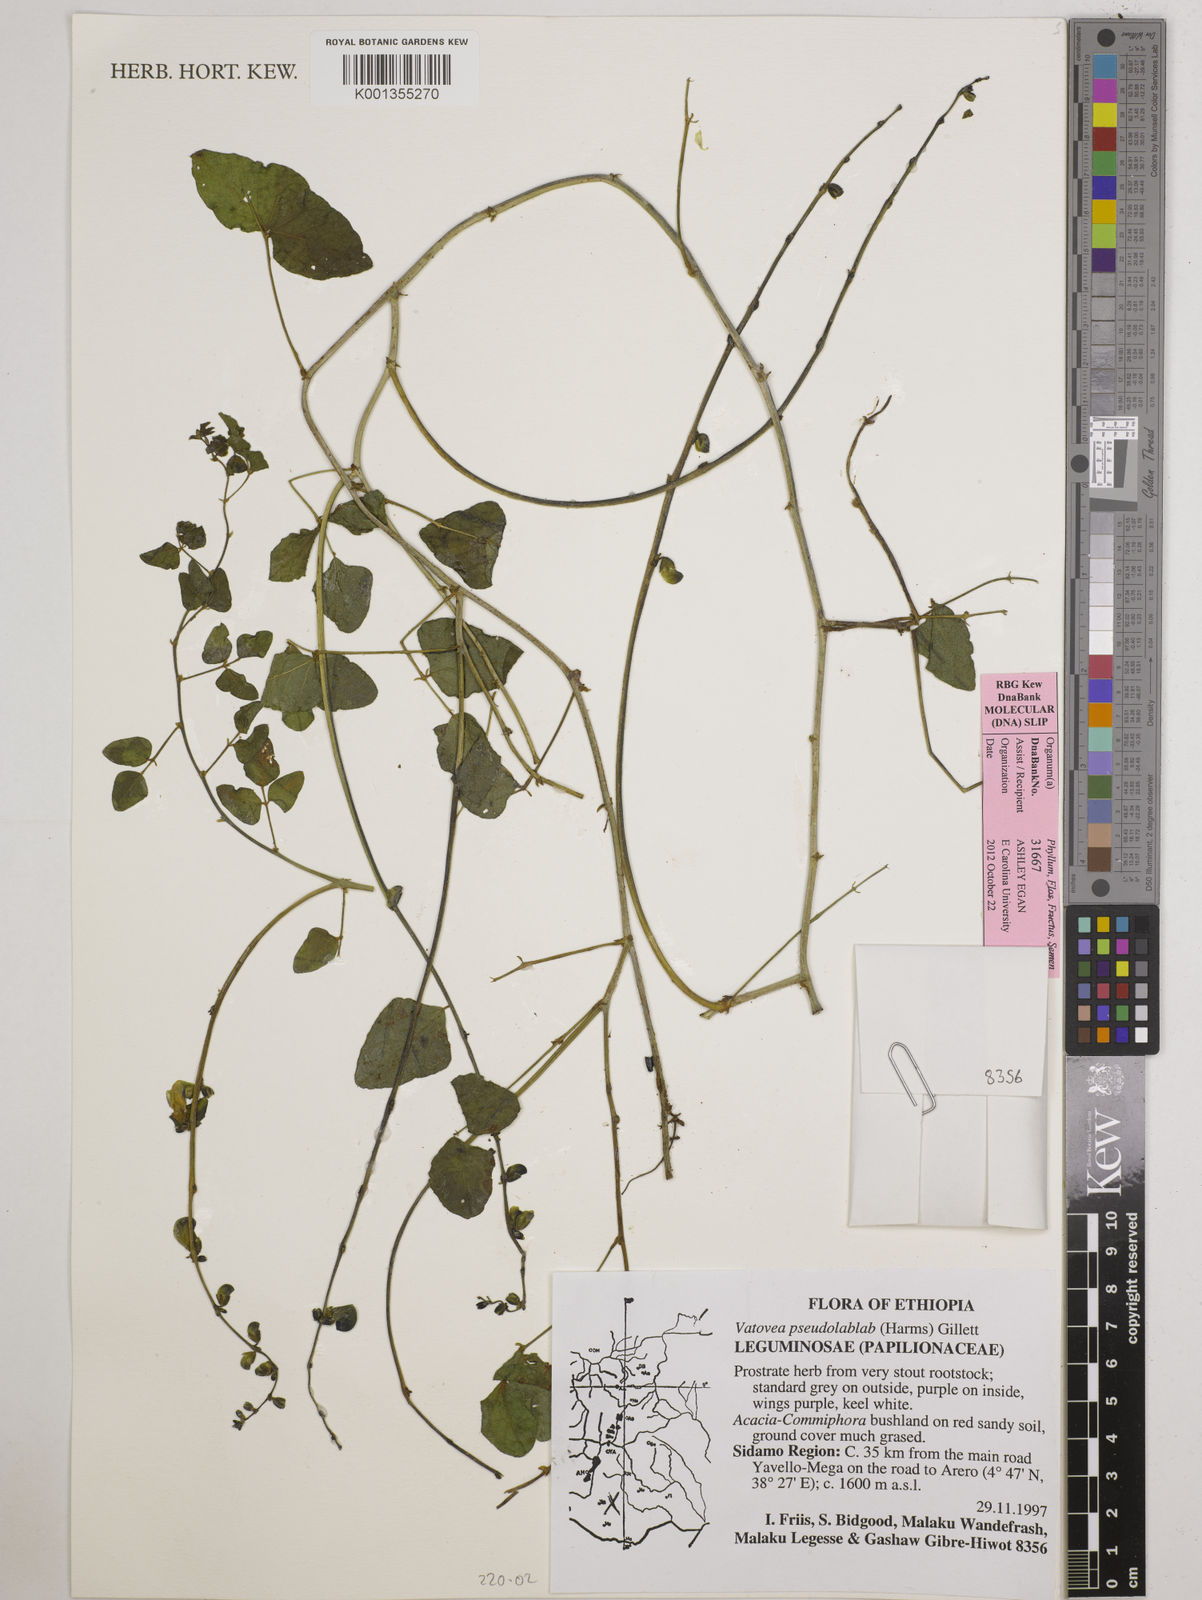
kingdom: Plantae
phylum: Tracheophyta
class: Magnoliopsida
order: Fabales
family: Fabaceae
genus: Vatovaea
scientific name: Vatovaea pseudolablab
